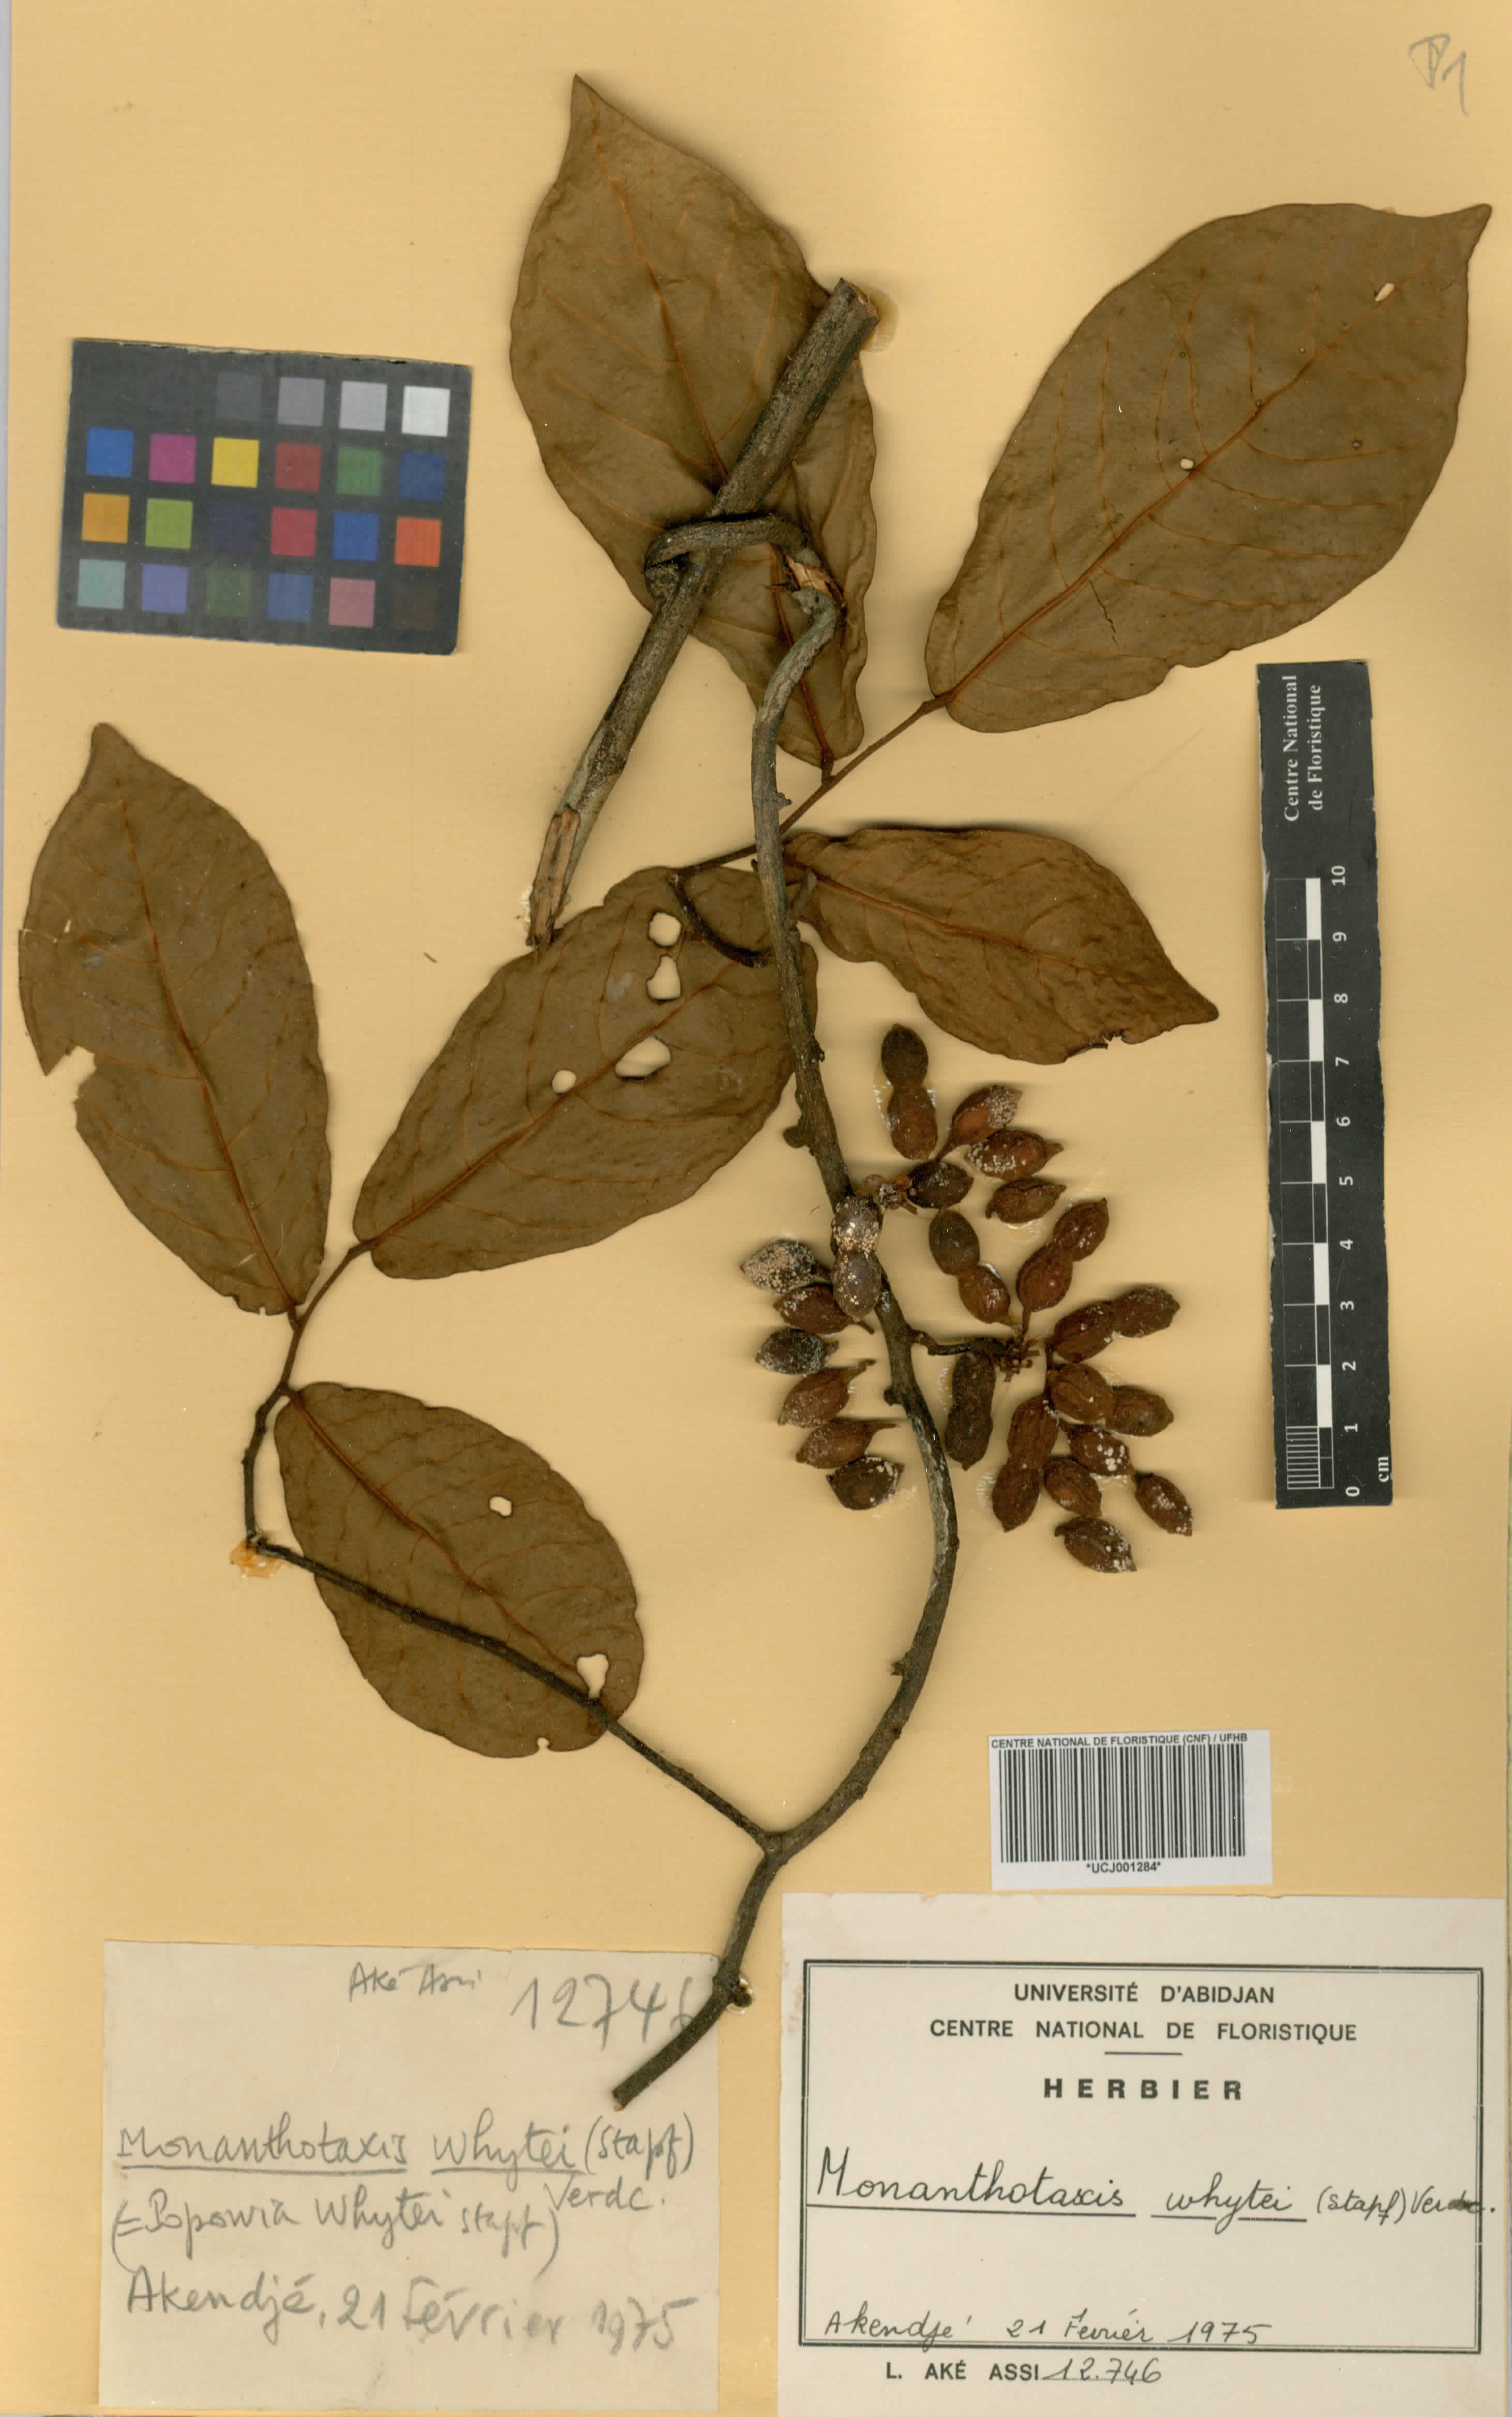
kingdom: Plantae
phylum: Tracheophyta
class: Magnoliopsida
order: Magnoliales
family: Annonaceae
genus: Monanthotaxis
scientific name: Monanthotaxis whytei
